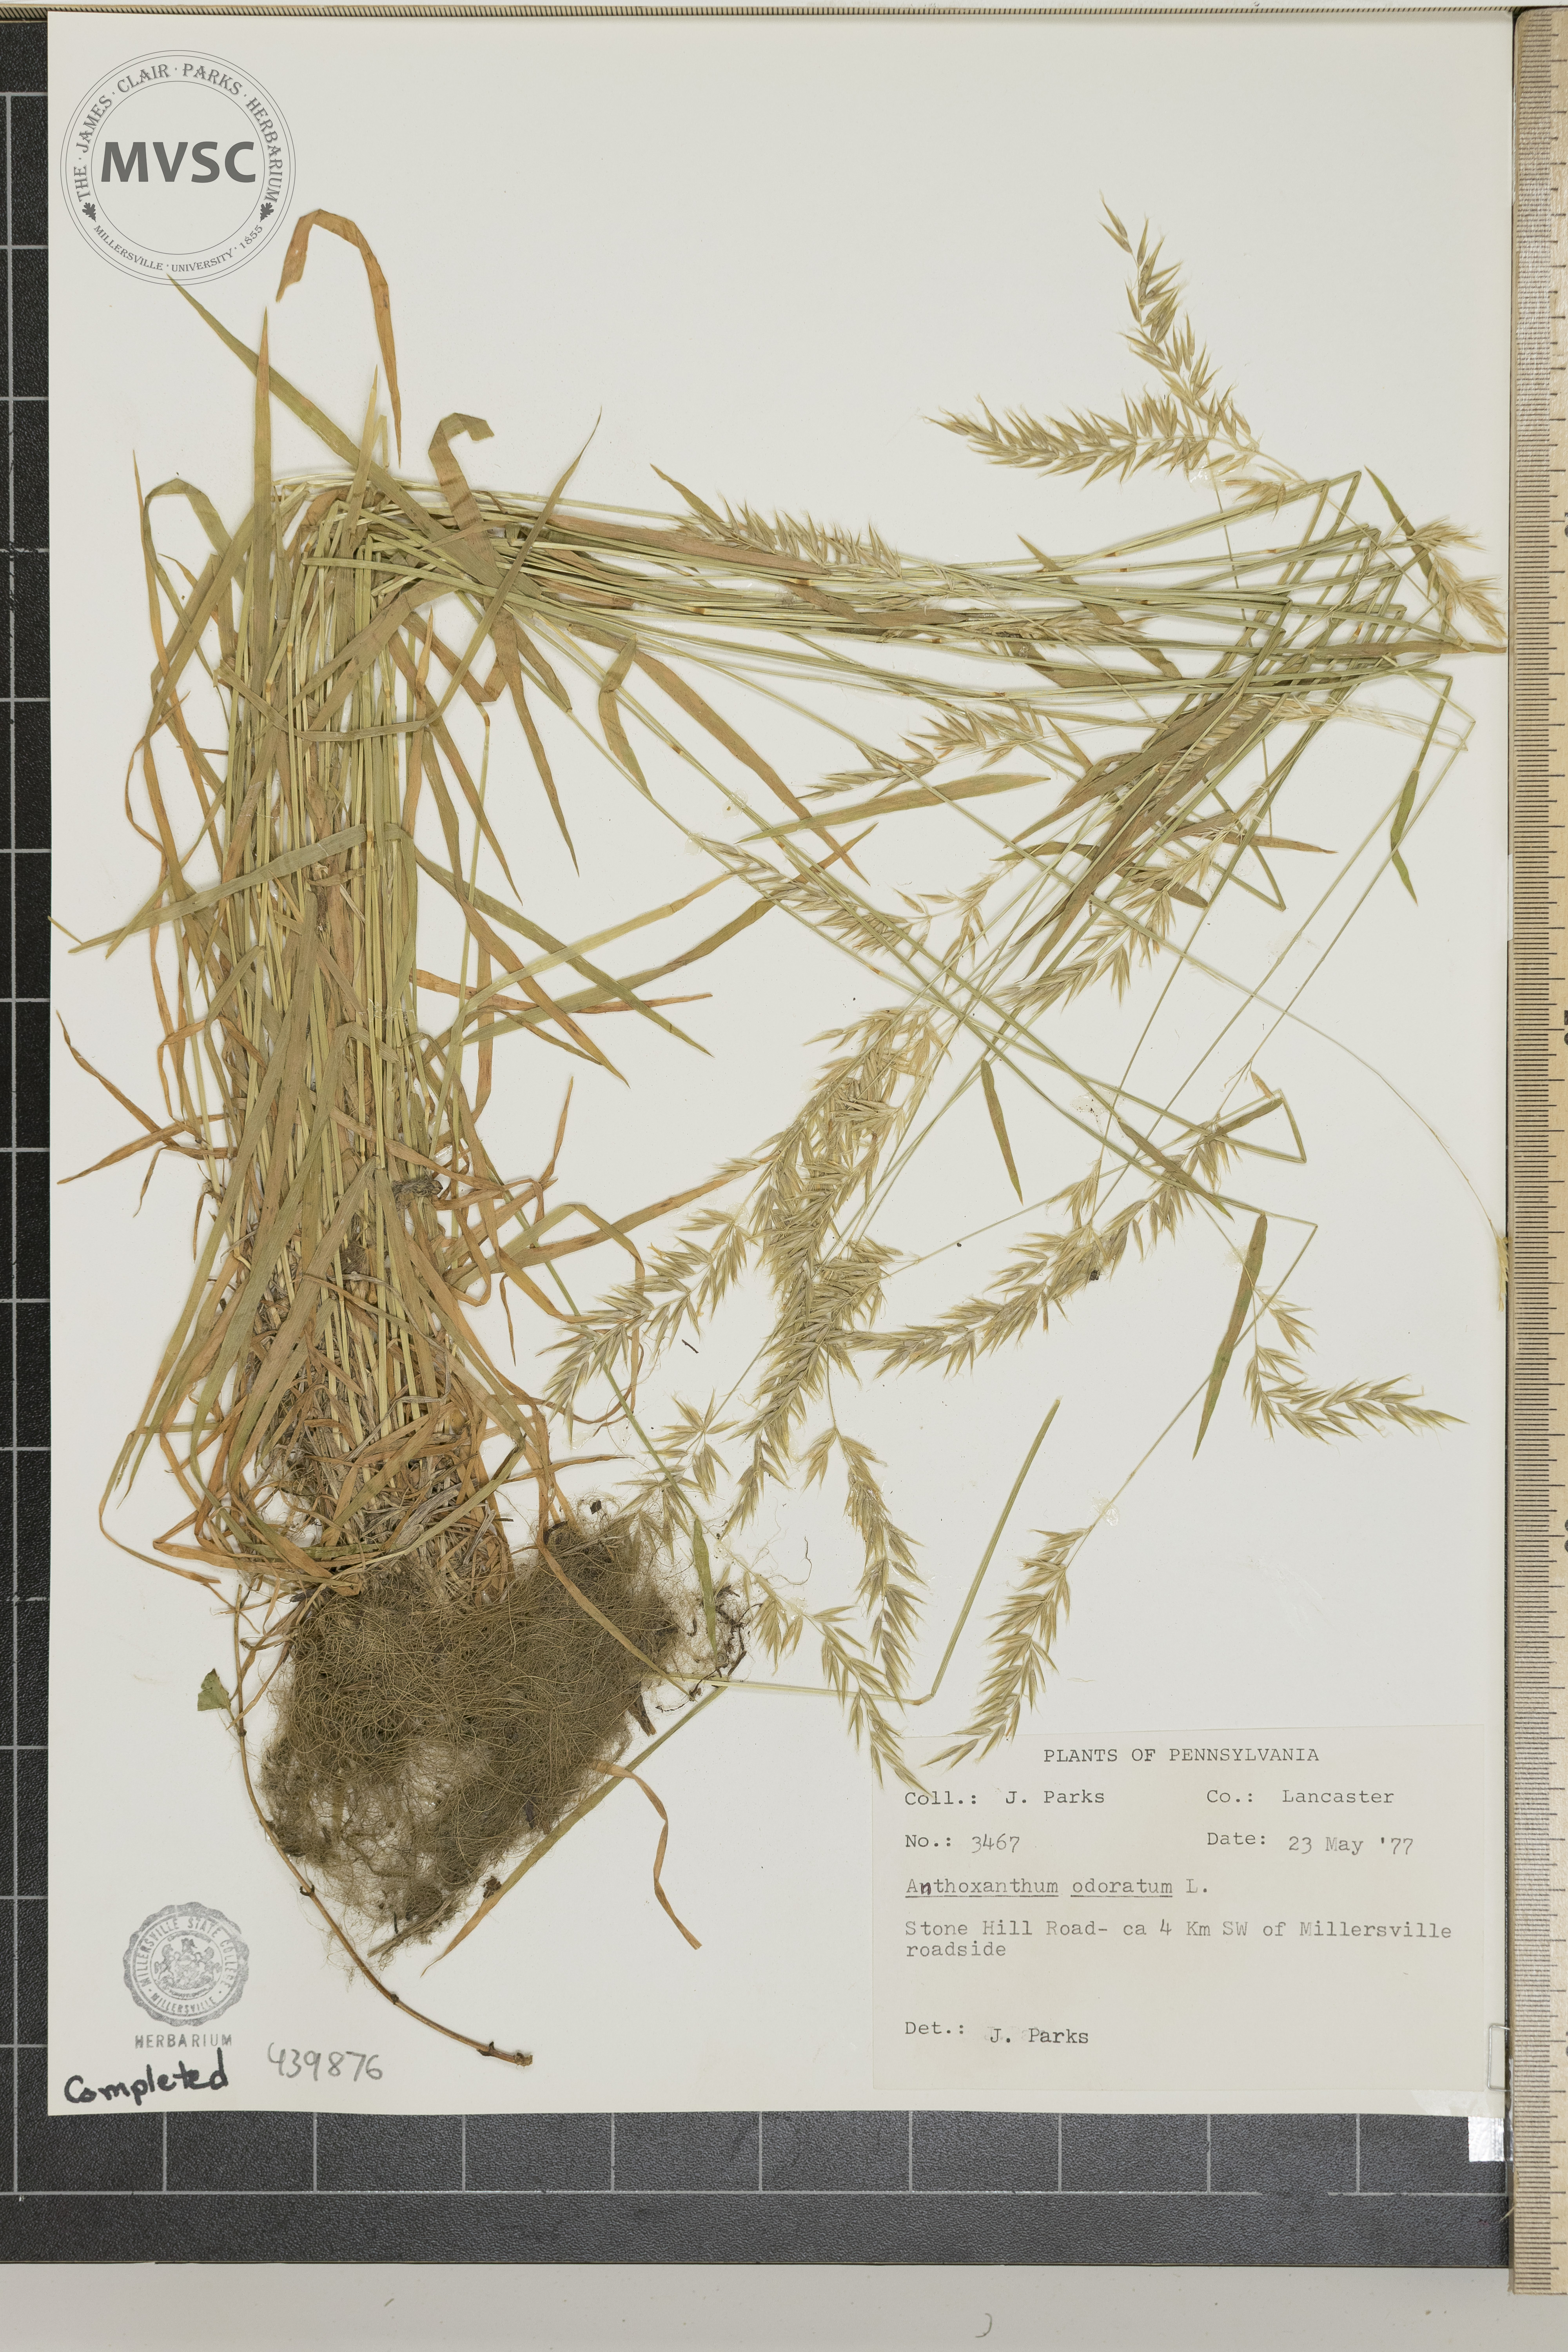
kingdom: Plantae
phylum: Tracheophyta
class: Liliopsida
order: Poales
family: Poaceae
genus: Anthoxanthum
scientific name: Anthoxanthum odoratum
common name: Sweet vernalgrass
